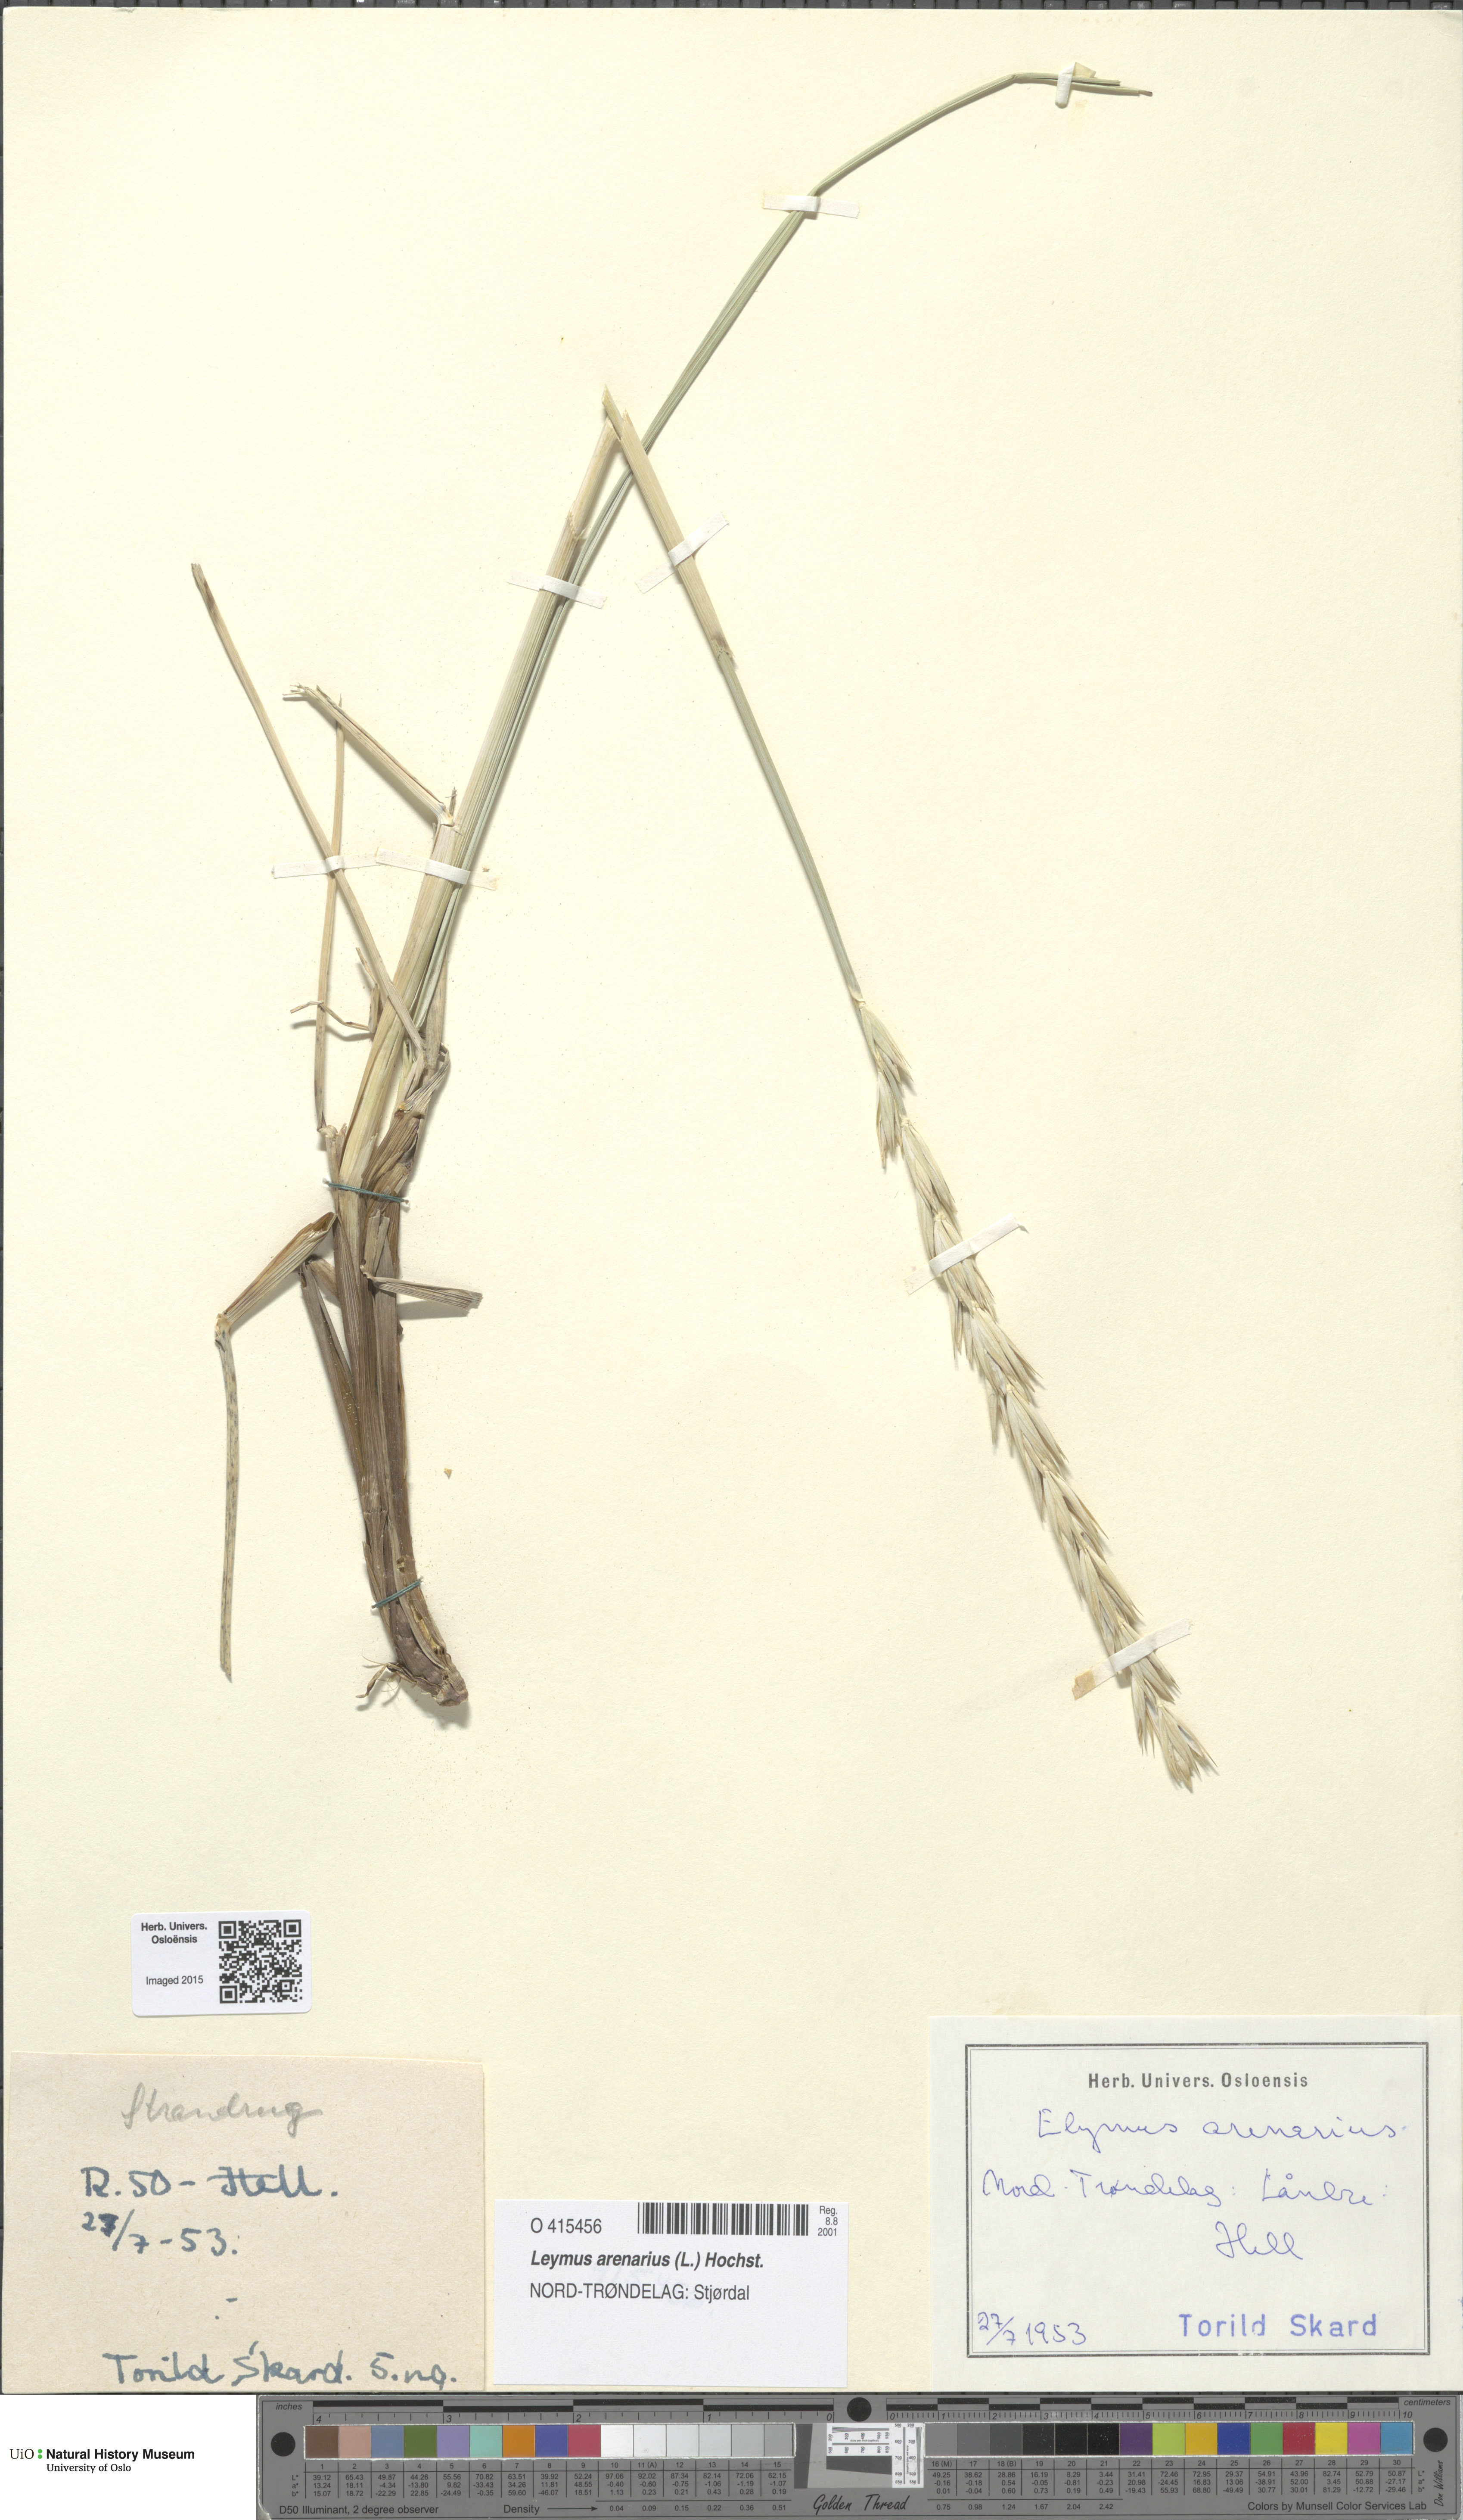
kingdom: Plantae
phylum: Tracheophyta
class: Liliopsida
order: Poales
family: Poaceae
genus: Leymus
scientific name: Leymus arenarius
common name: Lyme-grass
